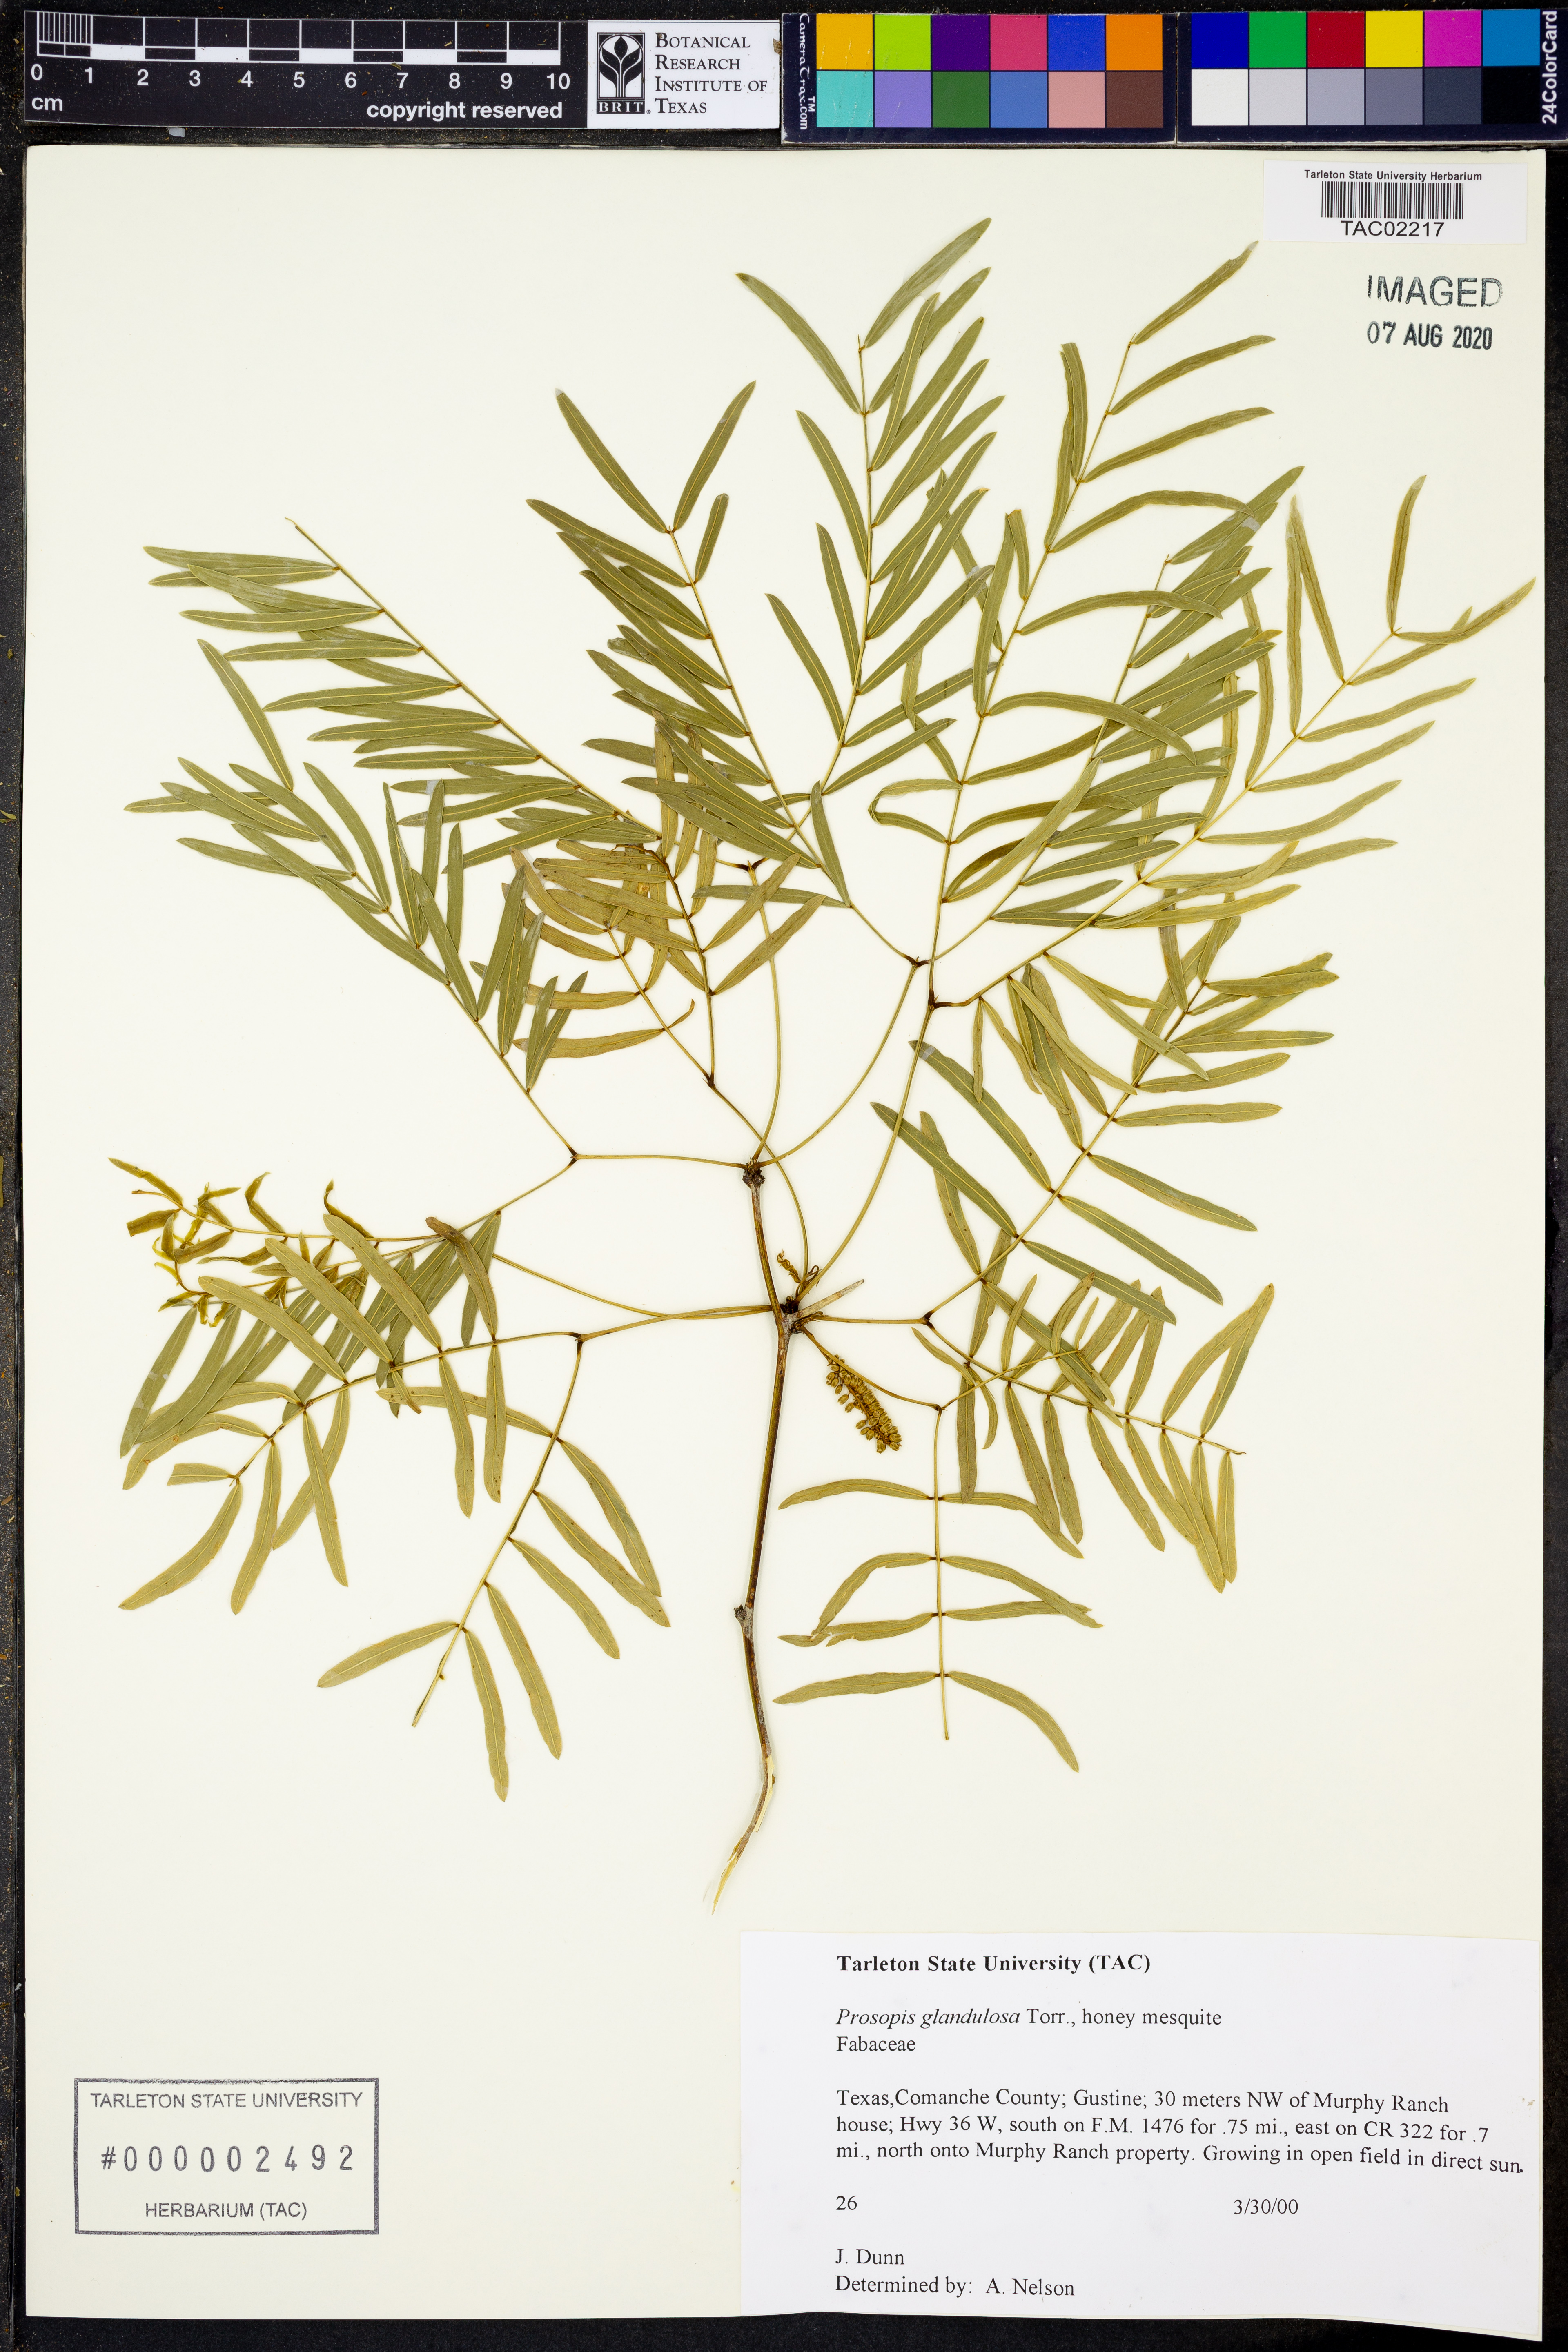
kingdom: Plantae
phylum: Tracheophyta
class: Magnoliopsida
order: Fabales
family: Fabaceae
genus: Prosopis
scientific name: Prosopis glandulosa
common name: Honey mesquite
